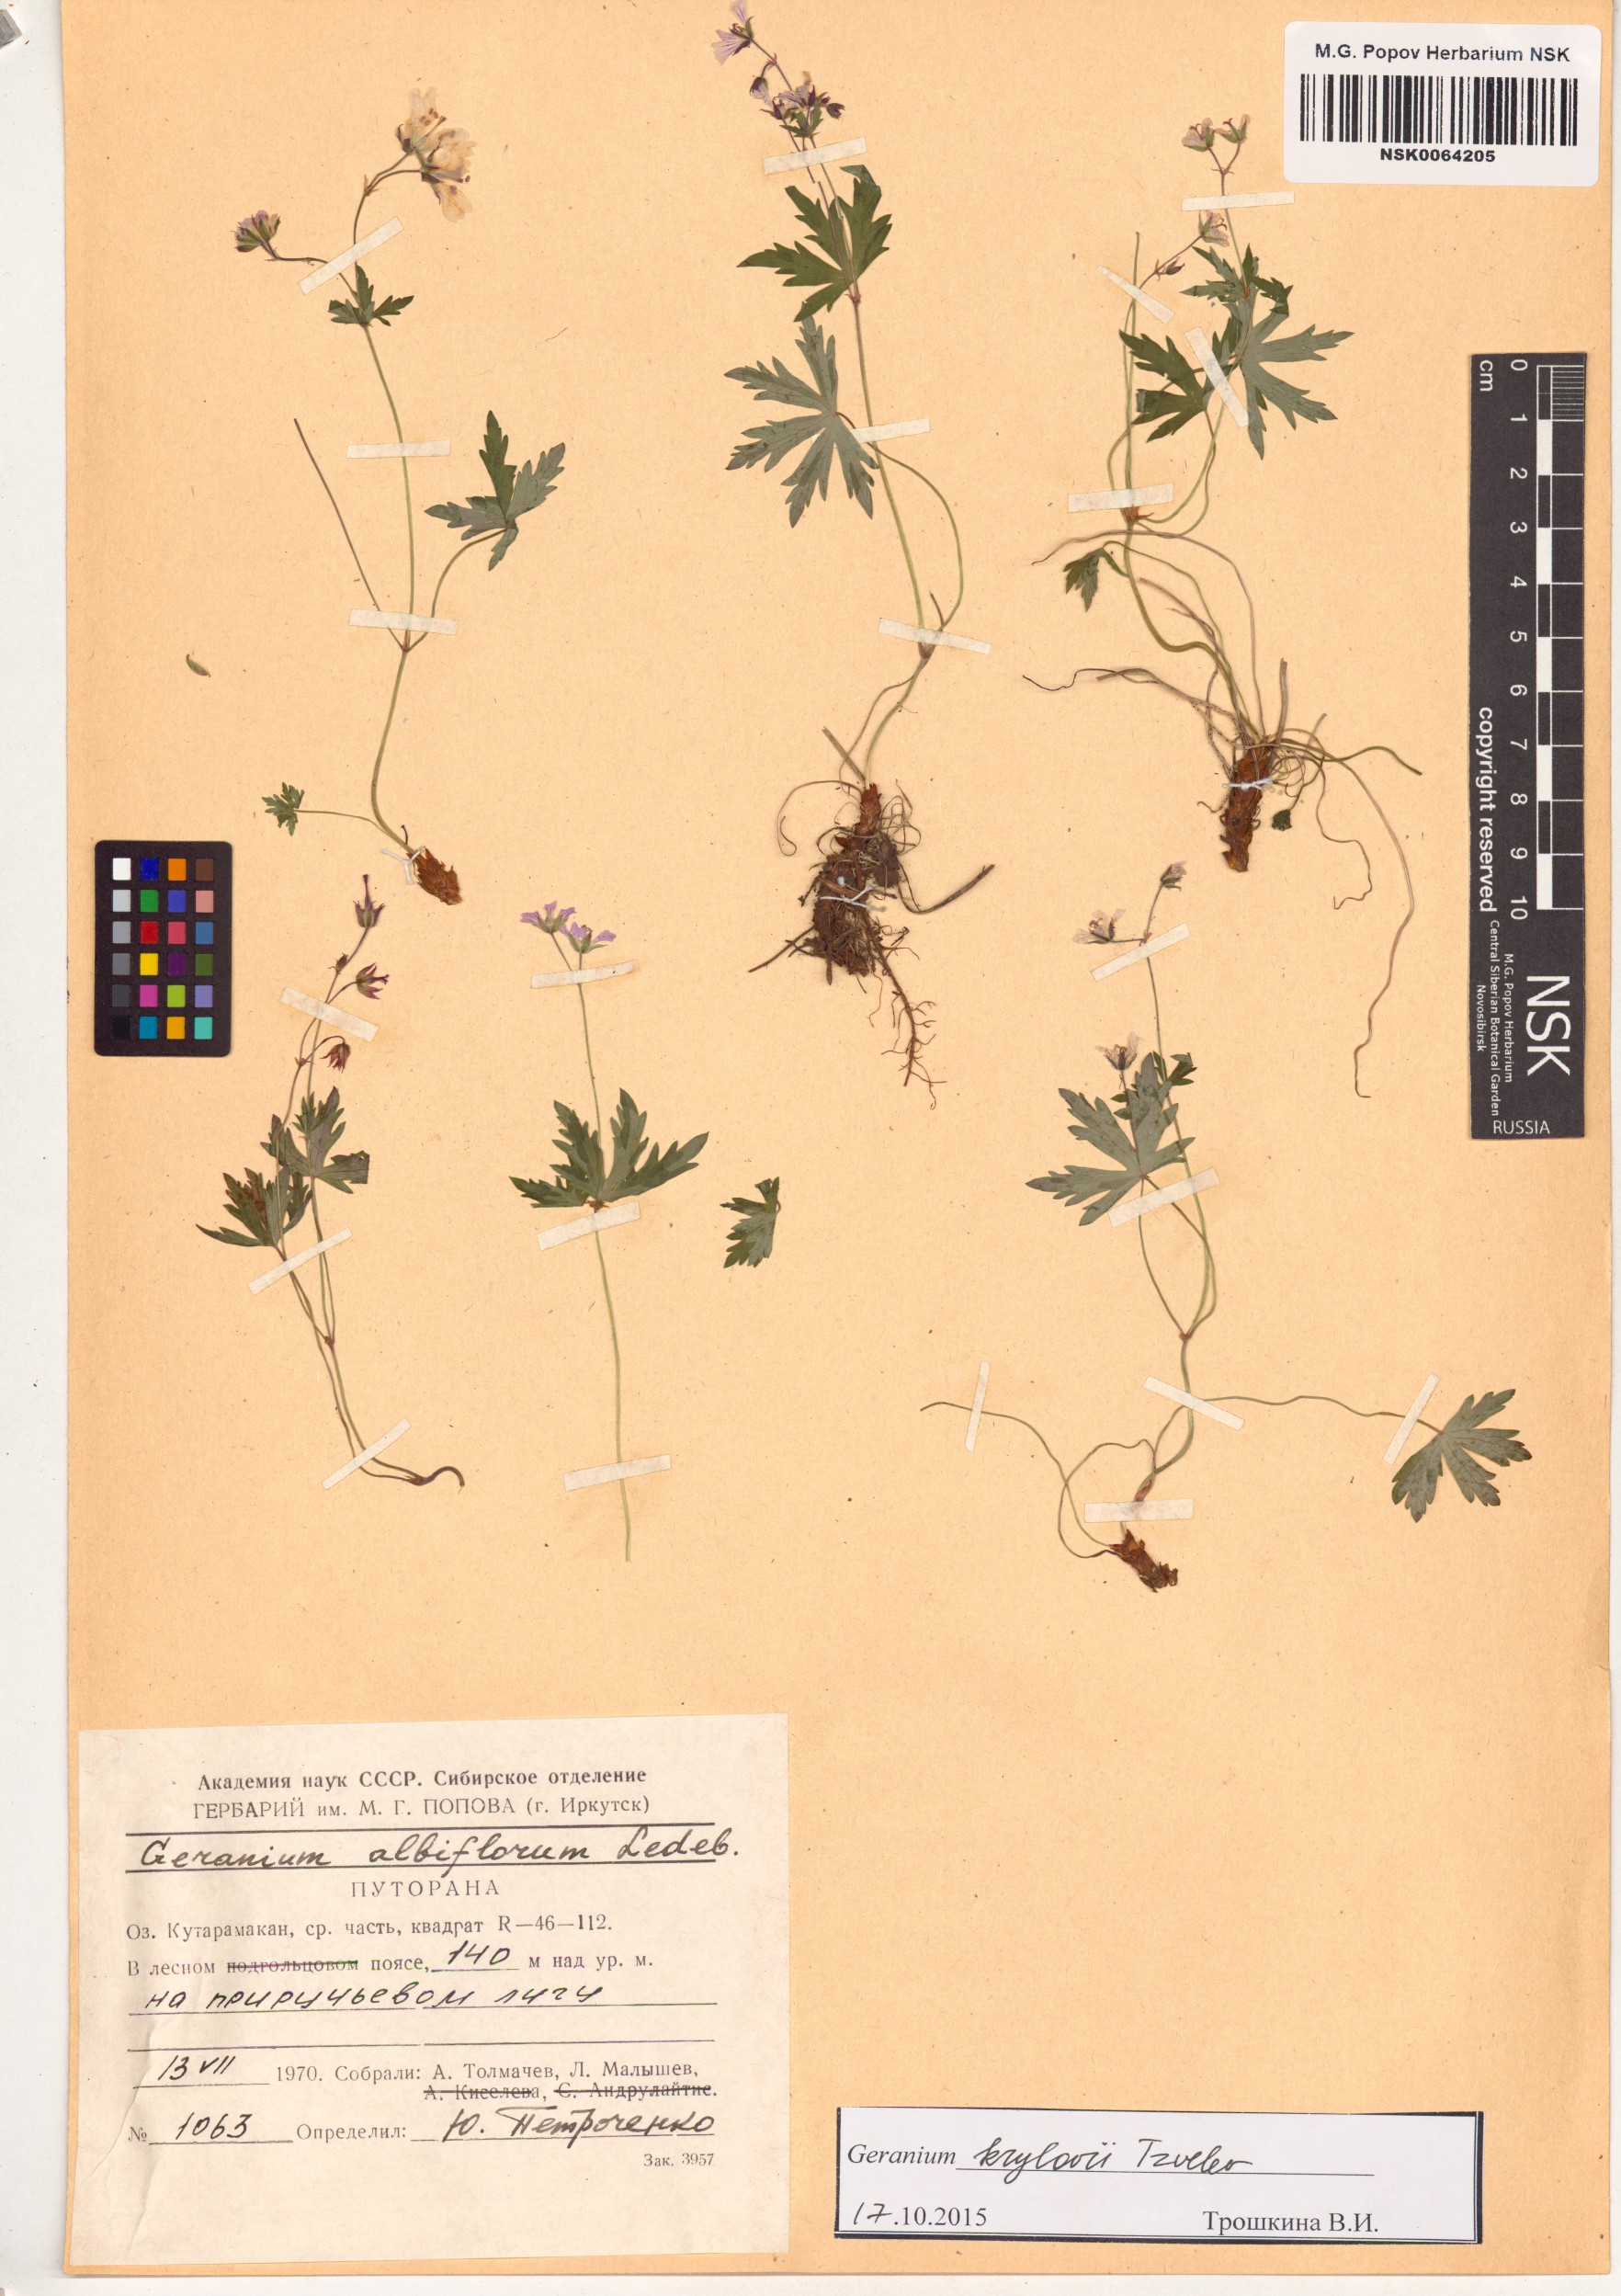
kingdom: Plantae
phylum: Tracheophyta
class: Magnoliopsida
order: Geraniales
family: Geraniaceae
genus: Geranium
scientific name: Geranium sylvaticum
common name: Wood crane's-bill
